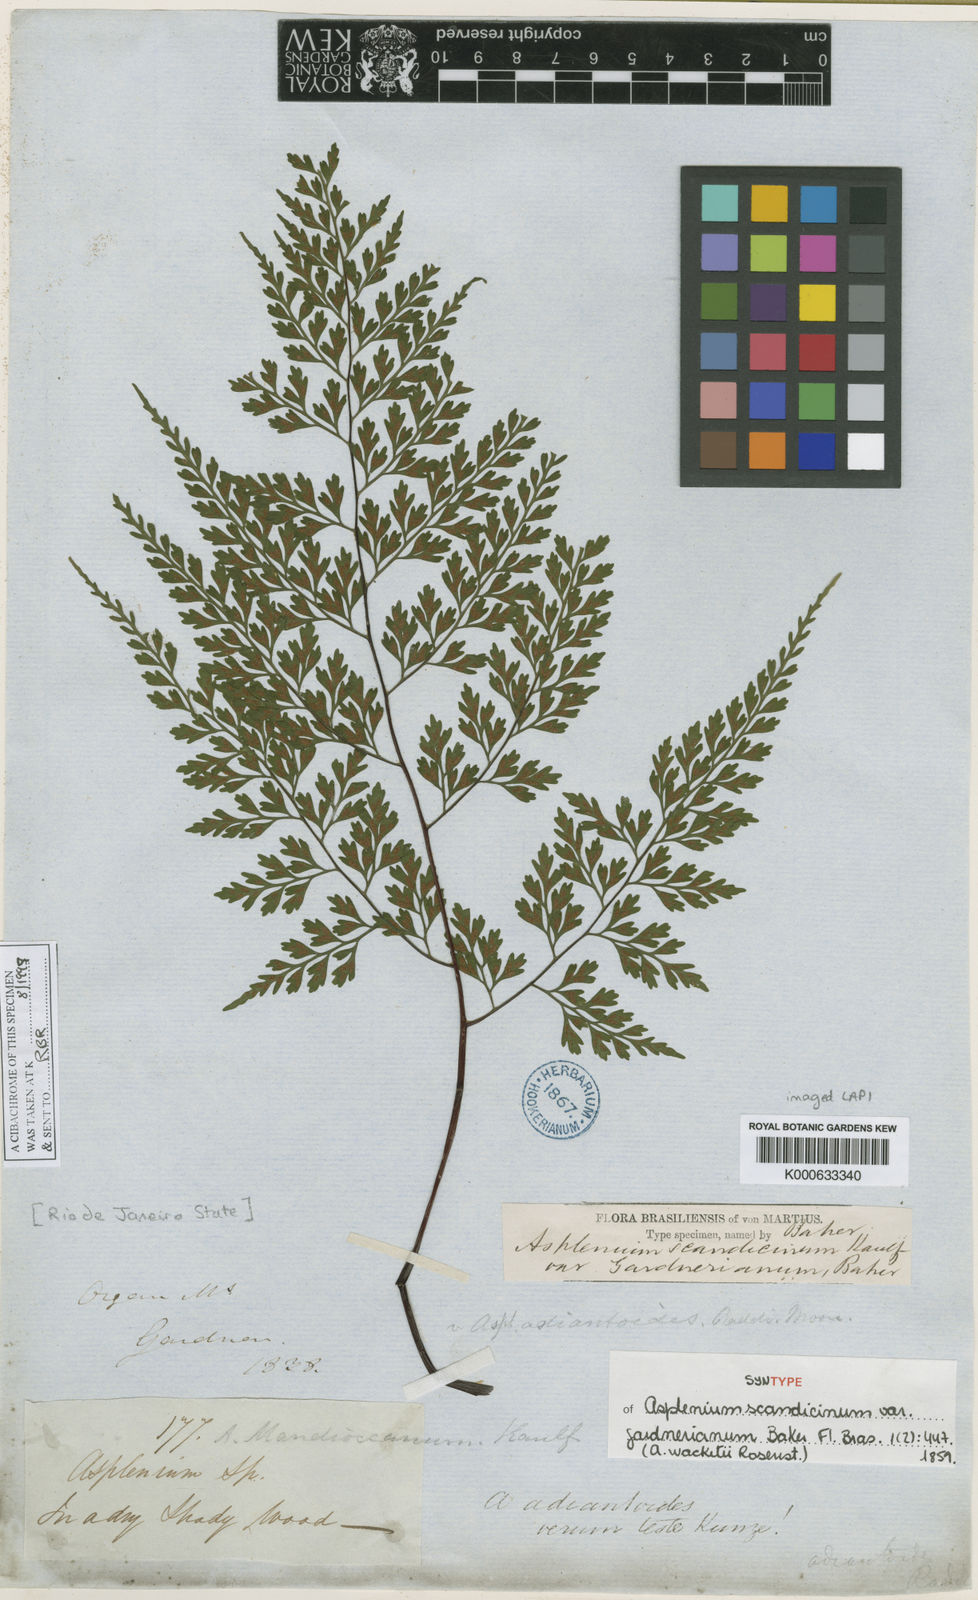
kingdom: Plantae
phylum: Tracheophyta
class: Polypodiopsida
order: Polypodiales
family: Aspleniaceae
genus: Asplenium
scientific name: Asplenium wacketii
